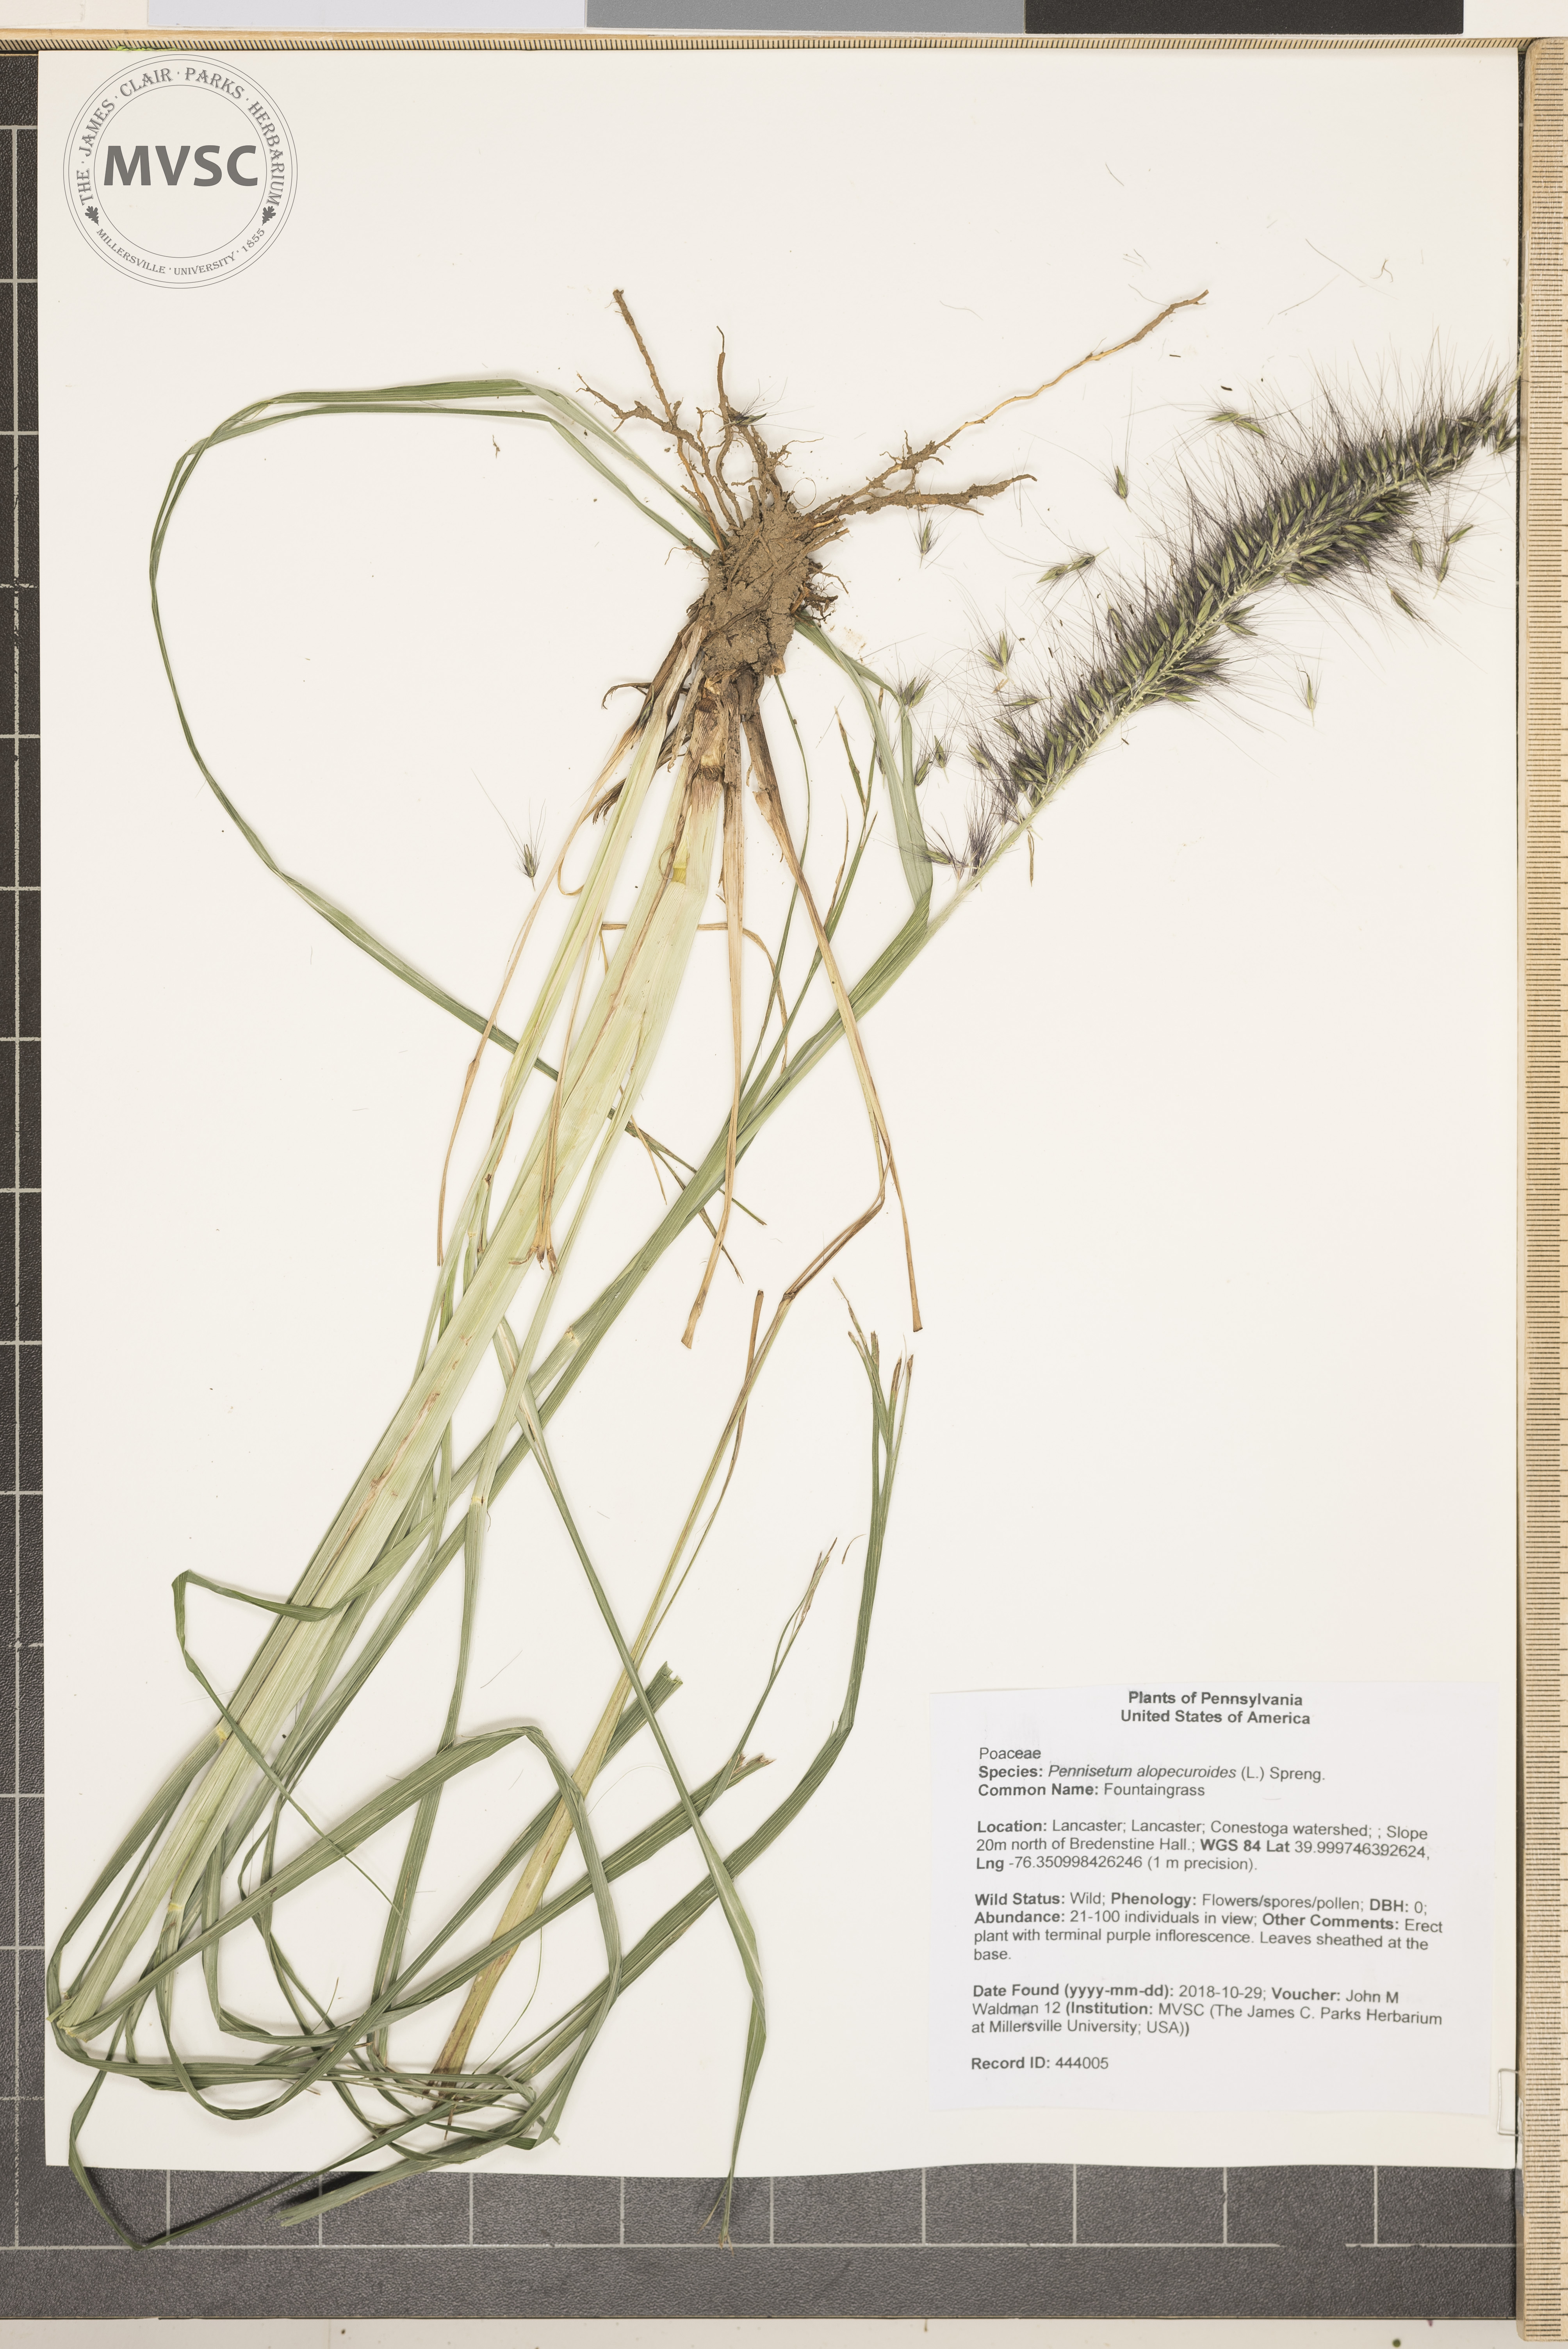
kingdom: Plantae
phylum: Tracheophyta
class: Liliopsida
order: Poales
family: Poaceae
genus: Cenchrus
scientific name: Cenchrus alopecuroides
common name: Fountaingrass
